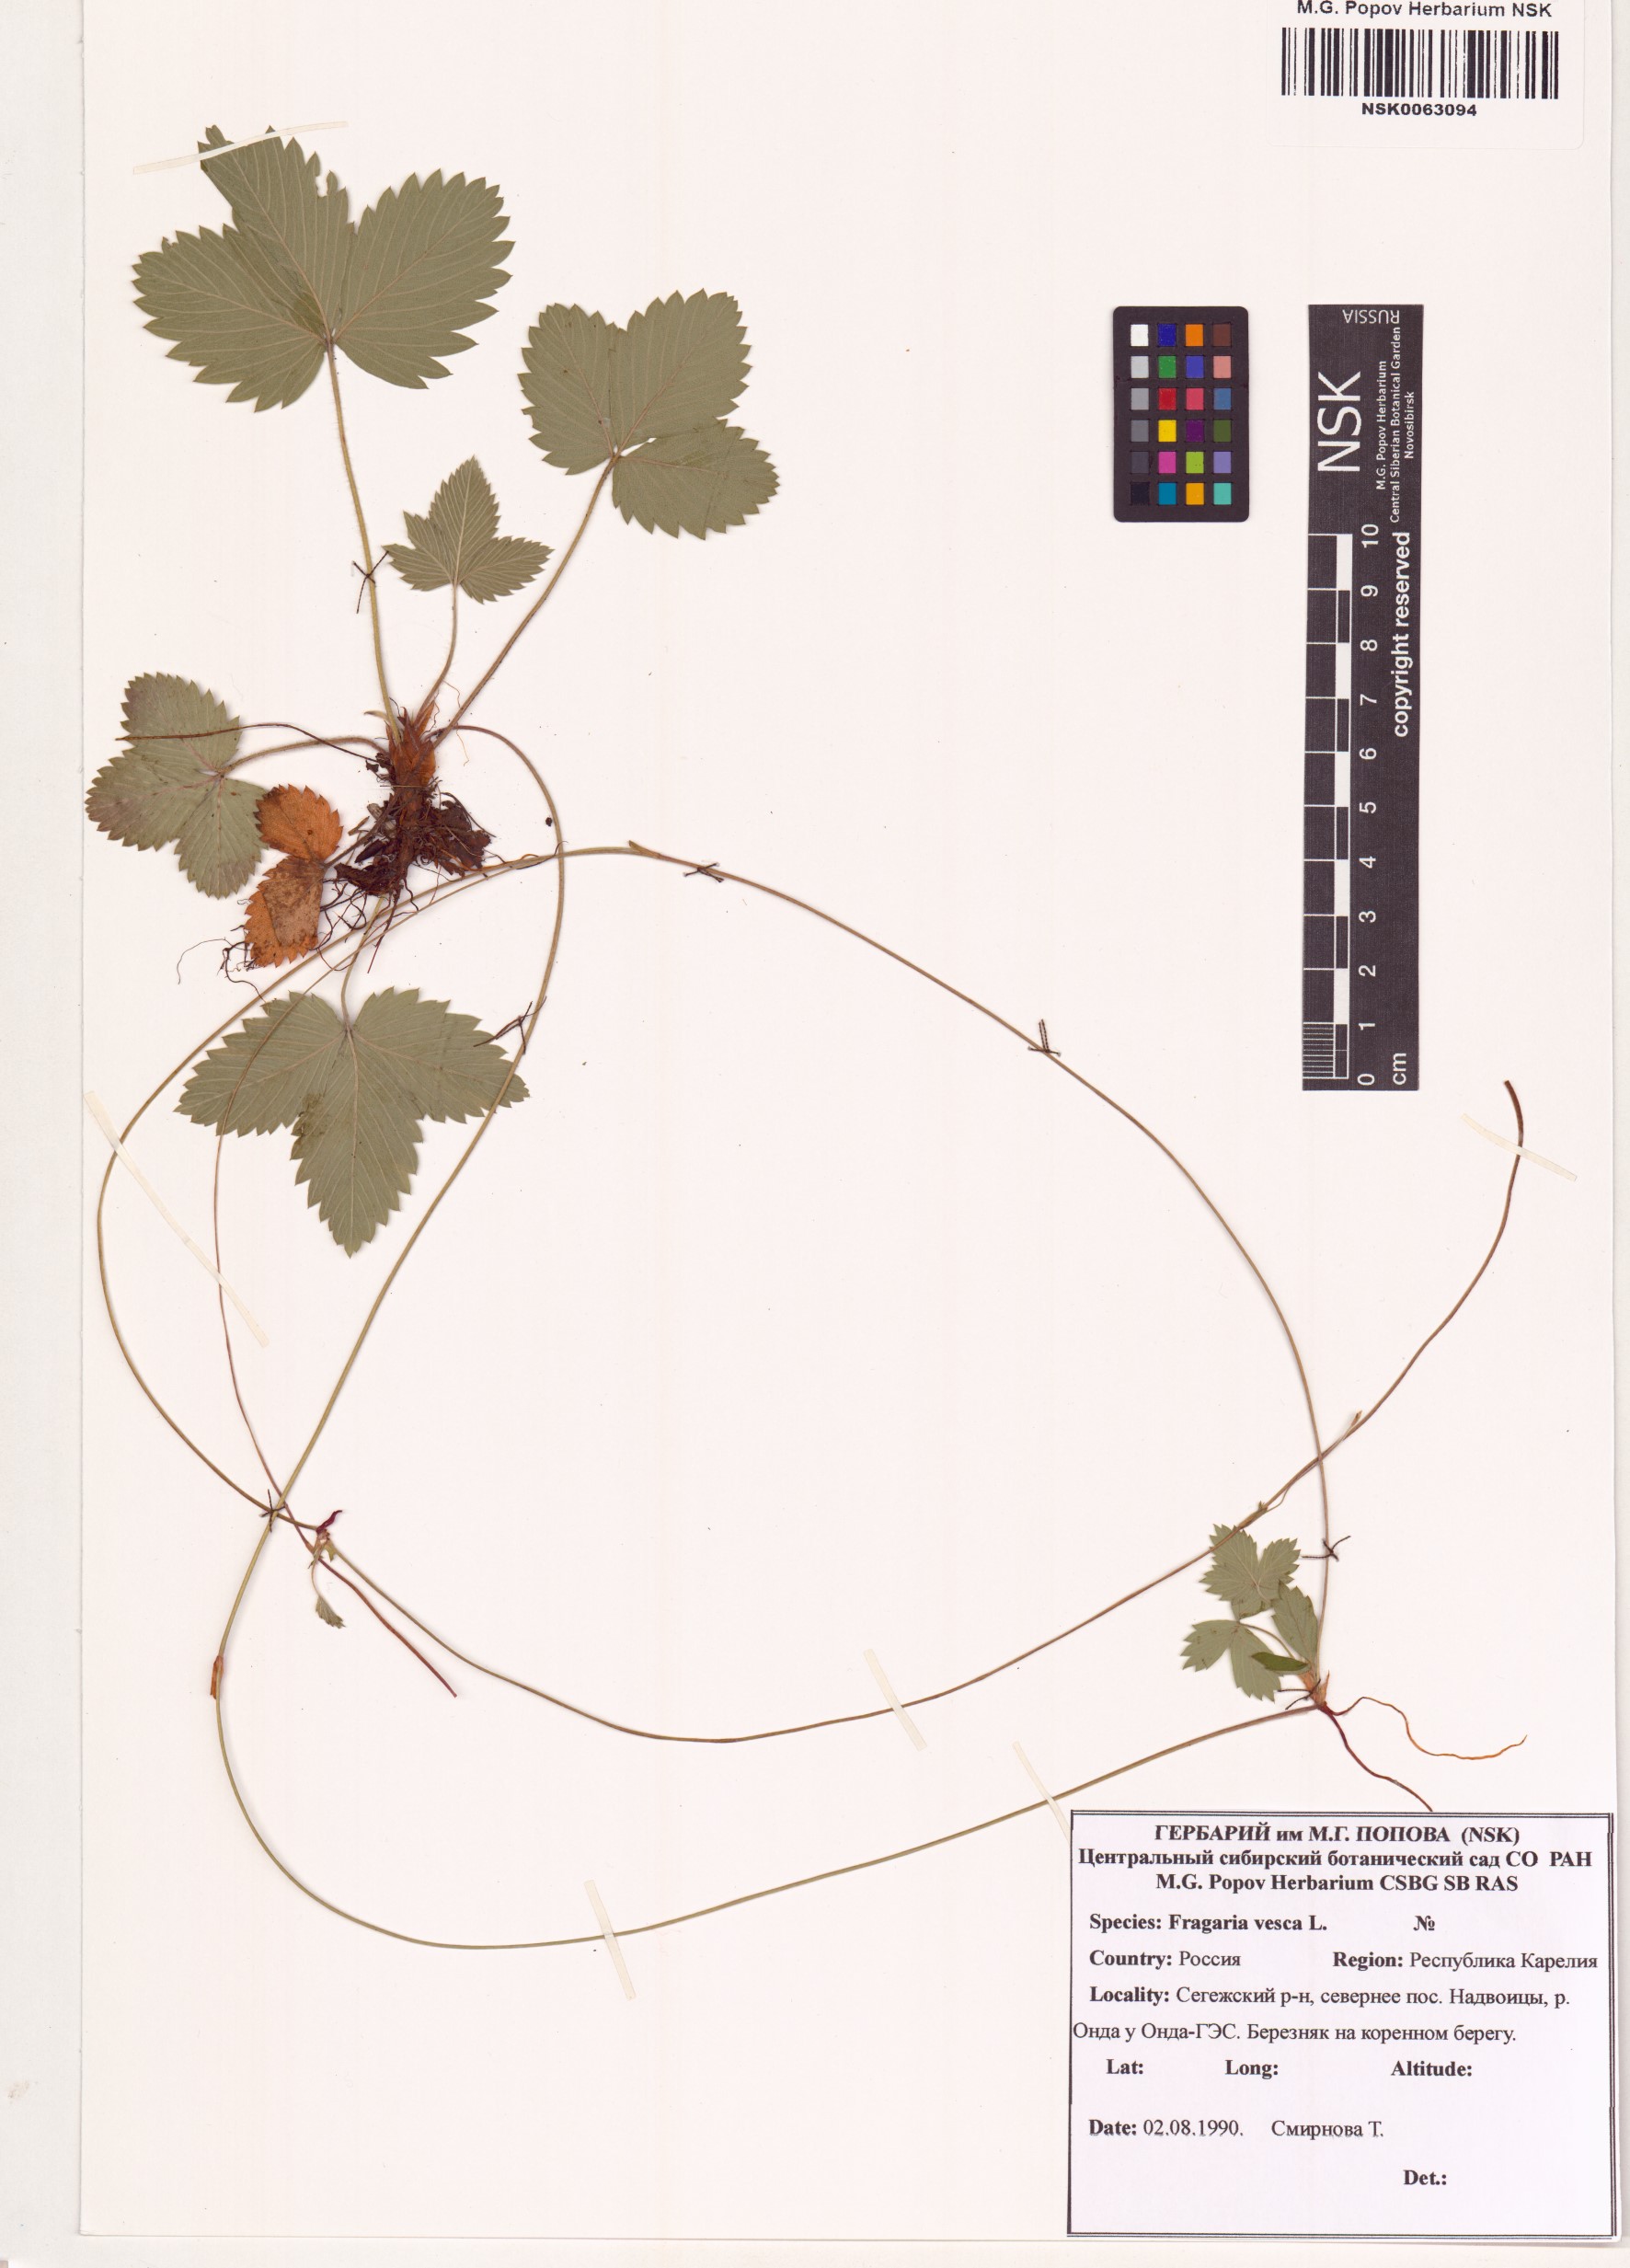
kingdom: Plantae
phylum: Tracheophyta
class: Magnoliopsida
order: Rosales
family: Rosaceae
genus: Fragaria
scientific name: Fragaria vesca
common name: Wild strawberry
